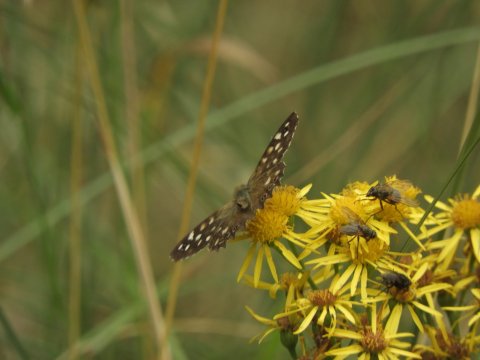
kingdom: Animalia
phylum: Arthropoda
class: Insecta
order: Lepidoptera
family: Nymphalidae
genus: Pararge
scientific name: Pararge aegeria
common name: Speckled Wood Butterfly
